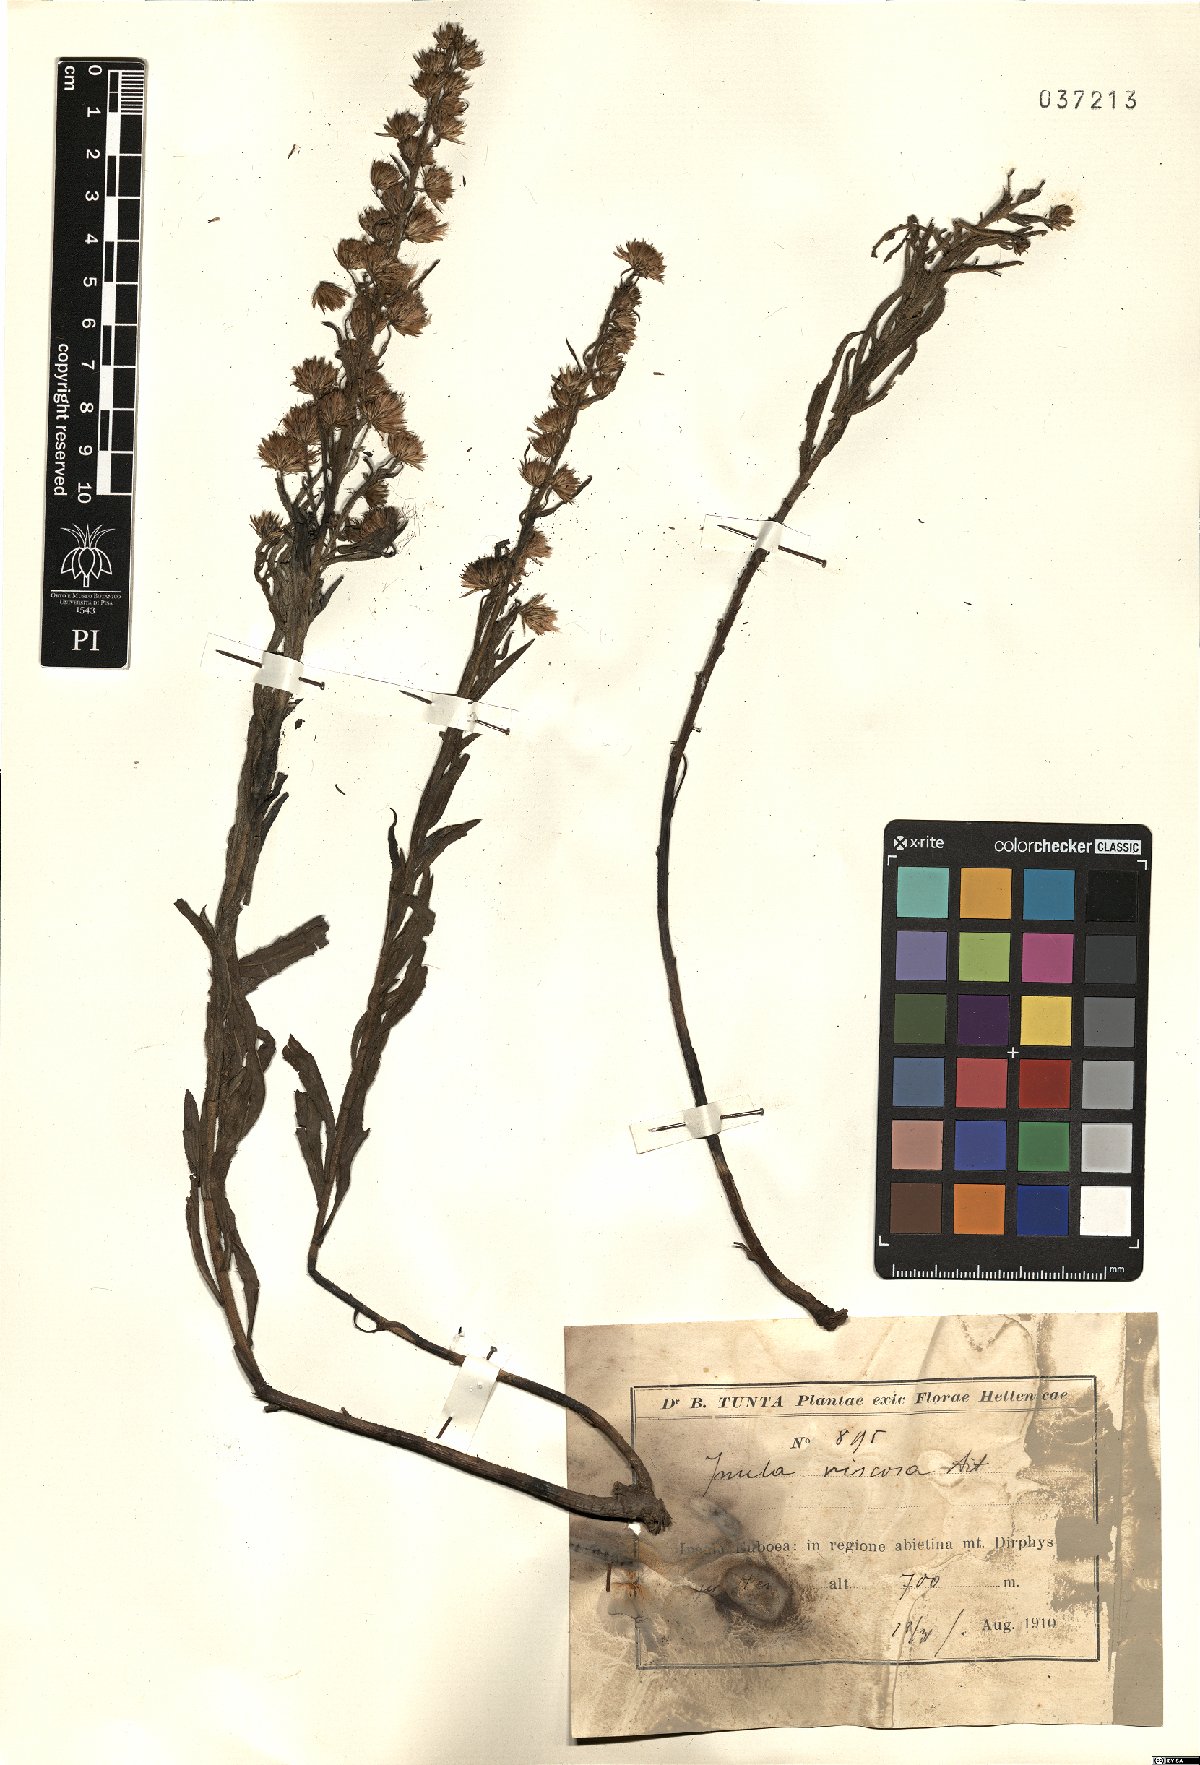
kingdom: Plantae
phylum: Tracheophyta
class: Magnoliopsida
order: Asterales
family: Asteraceae
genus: Dittrichia
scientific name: Dittrichia viscosa
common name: Woody fleabane
